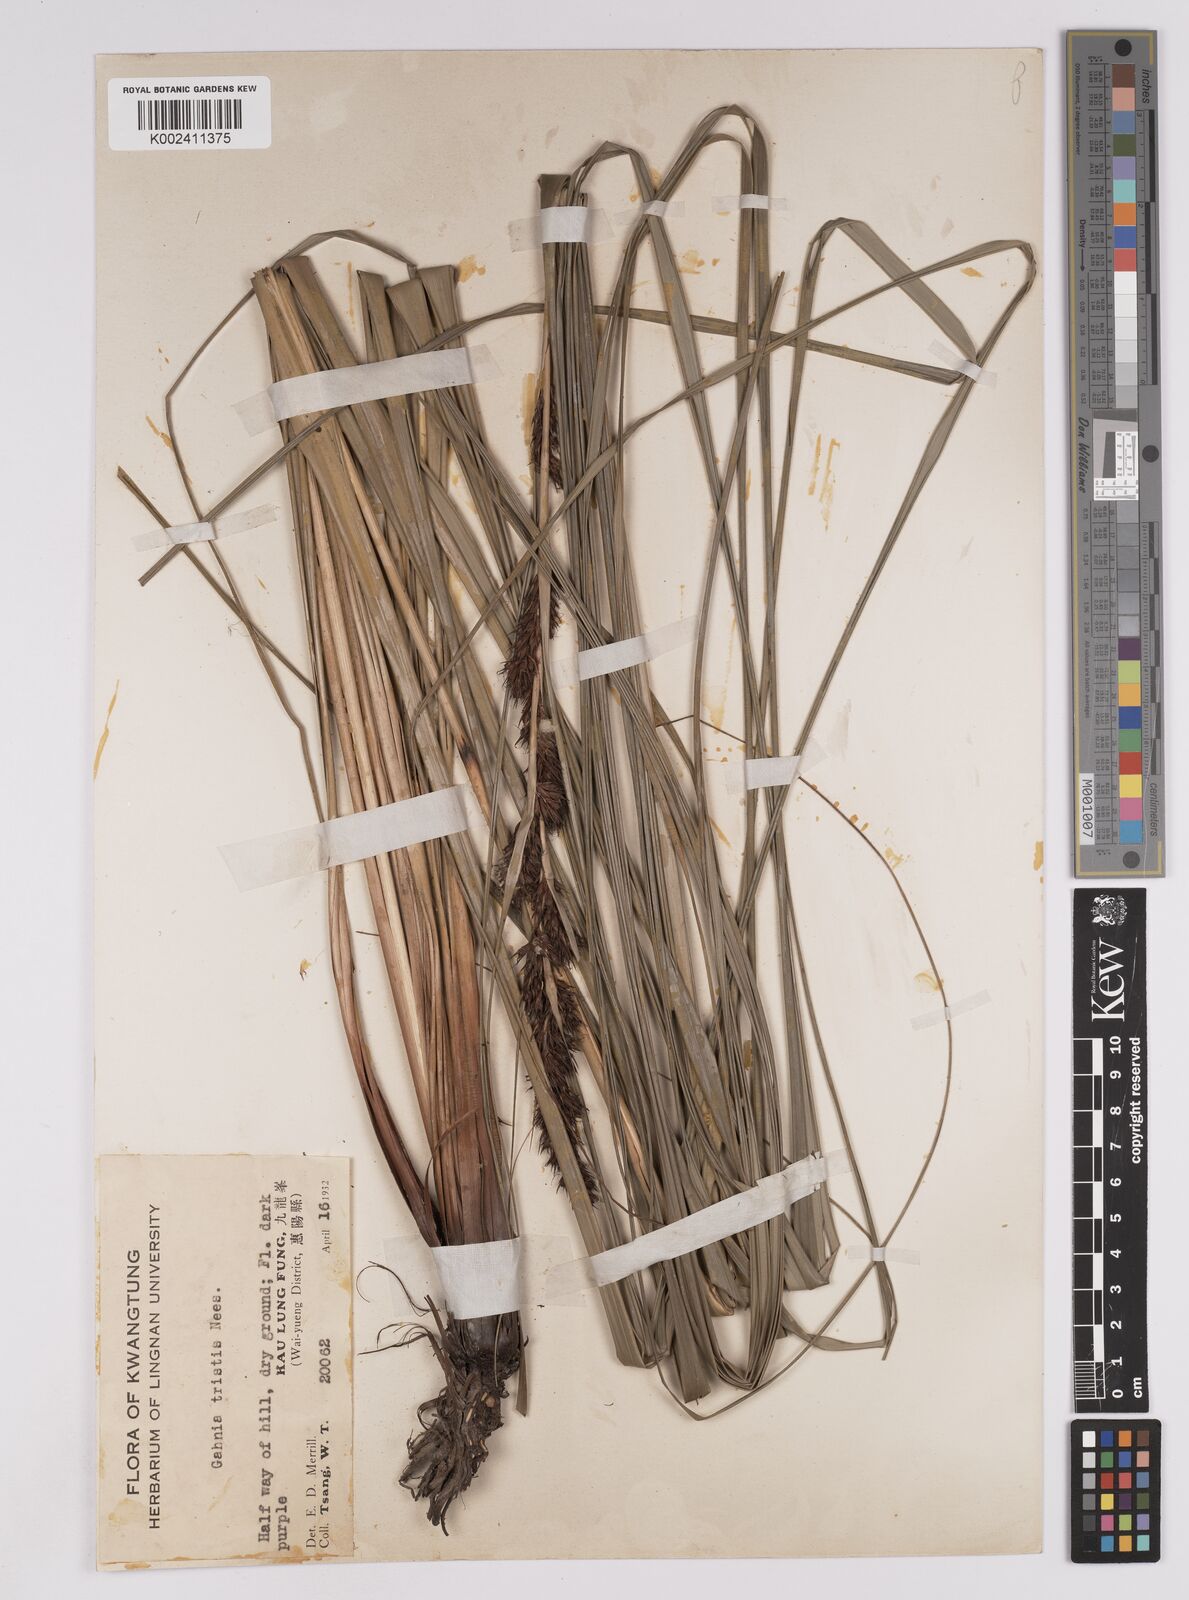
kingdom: Plantae
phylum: Tracheophyta
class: Liliopsida
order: Poales
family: Cyperaceae
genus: Gahnia
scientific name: Gahnia tristis
